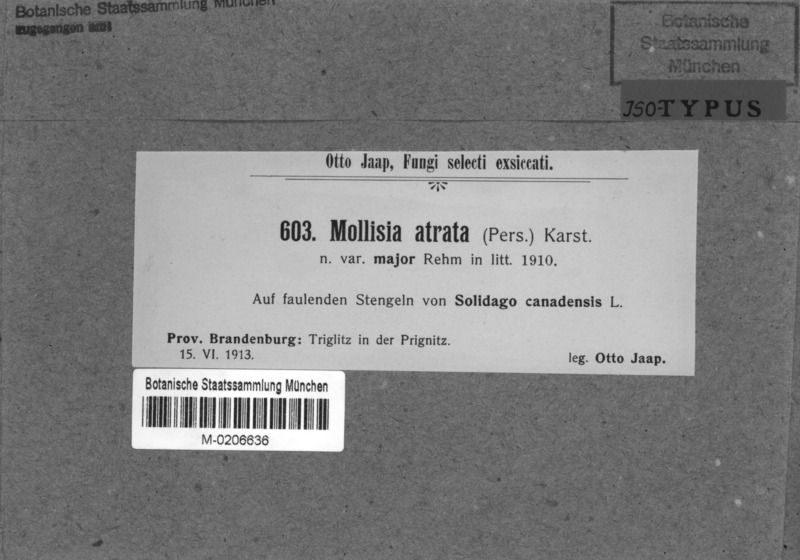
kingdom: Fungi
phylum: Ascomycota
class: Leotiomycetes
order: Helotiales
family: Ploettnerulaceae
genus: Pyrenopeziza
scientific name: Pyrenopeziza atrata
